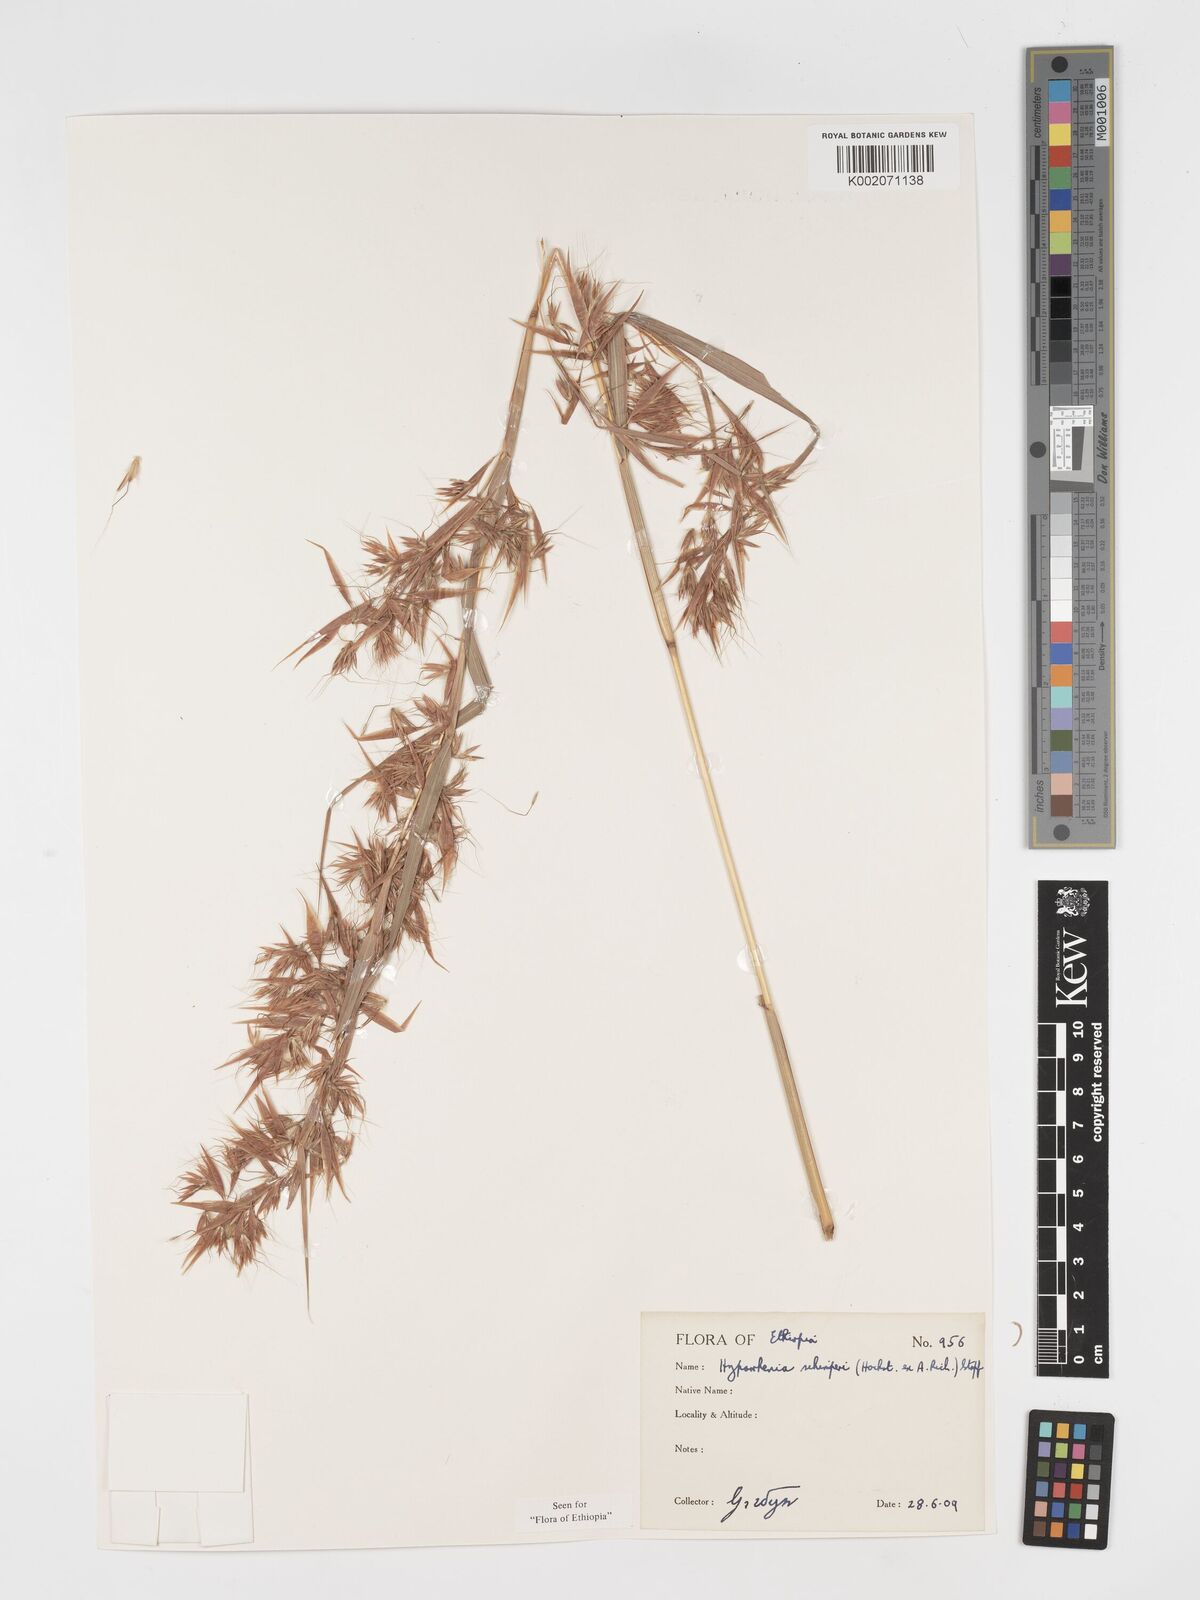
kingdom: Plantae
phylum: Tracheophyta
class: Liliopsida
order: Poales
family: Poaceae
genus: Hyparrhenia
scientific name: Hyparrhenia schimperi
